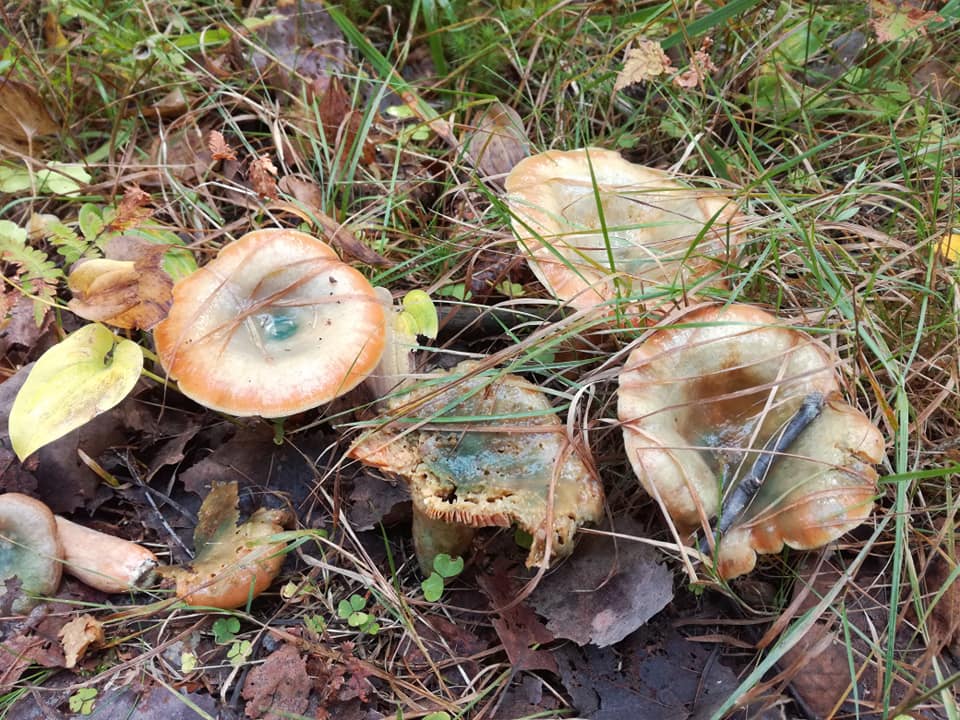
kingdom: Fungi
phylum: Basidiomycota
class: Agaricomycetes
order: Russulales
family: Russulaceae
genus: Lactarius
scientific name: Lactarius deterrimus
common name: False saffron milkcap
